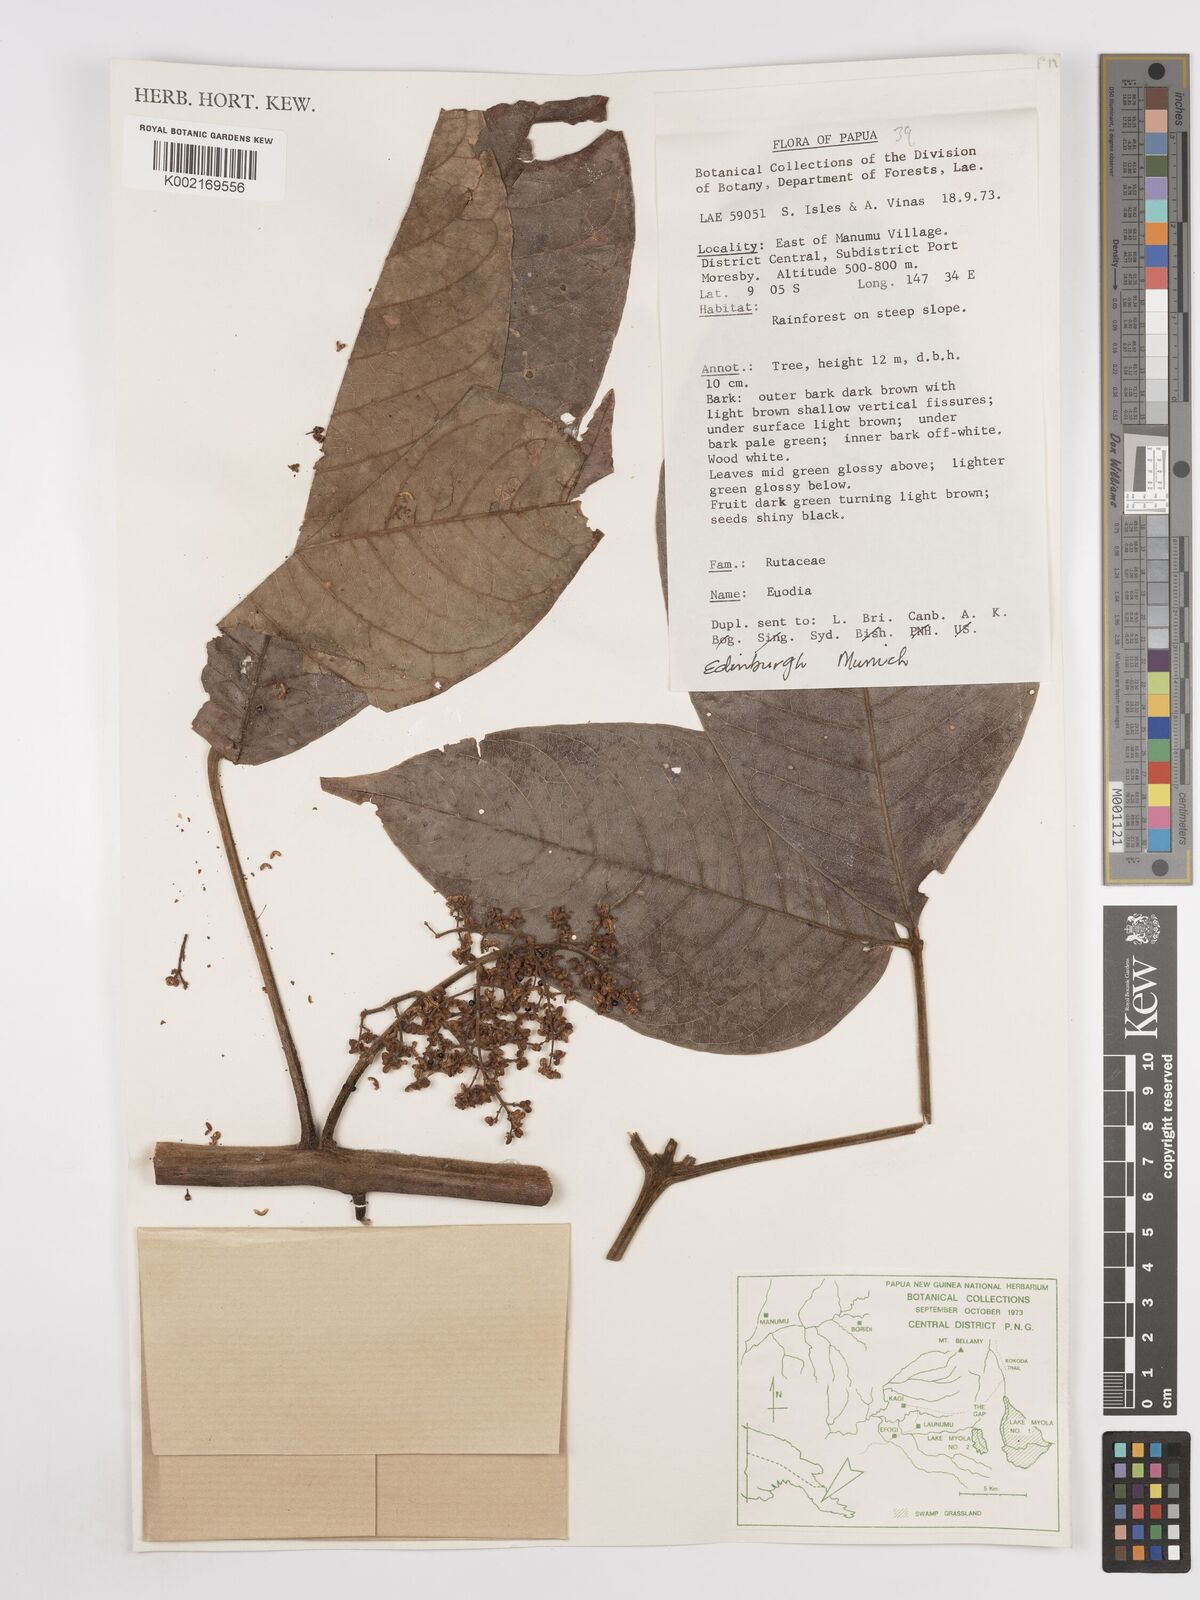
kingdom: Plantae
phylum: Tracheophyta
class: Magnoliopsida
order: Sapindales
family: Rutaceae
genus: Euodia
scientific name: Euodia
